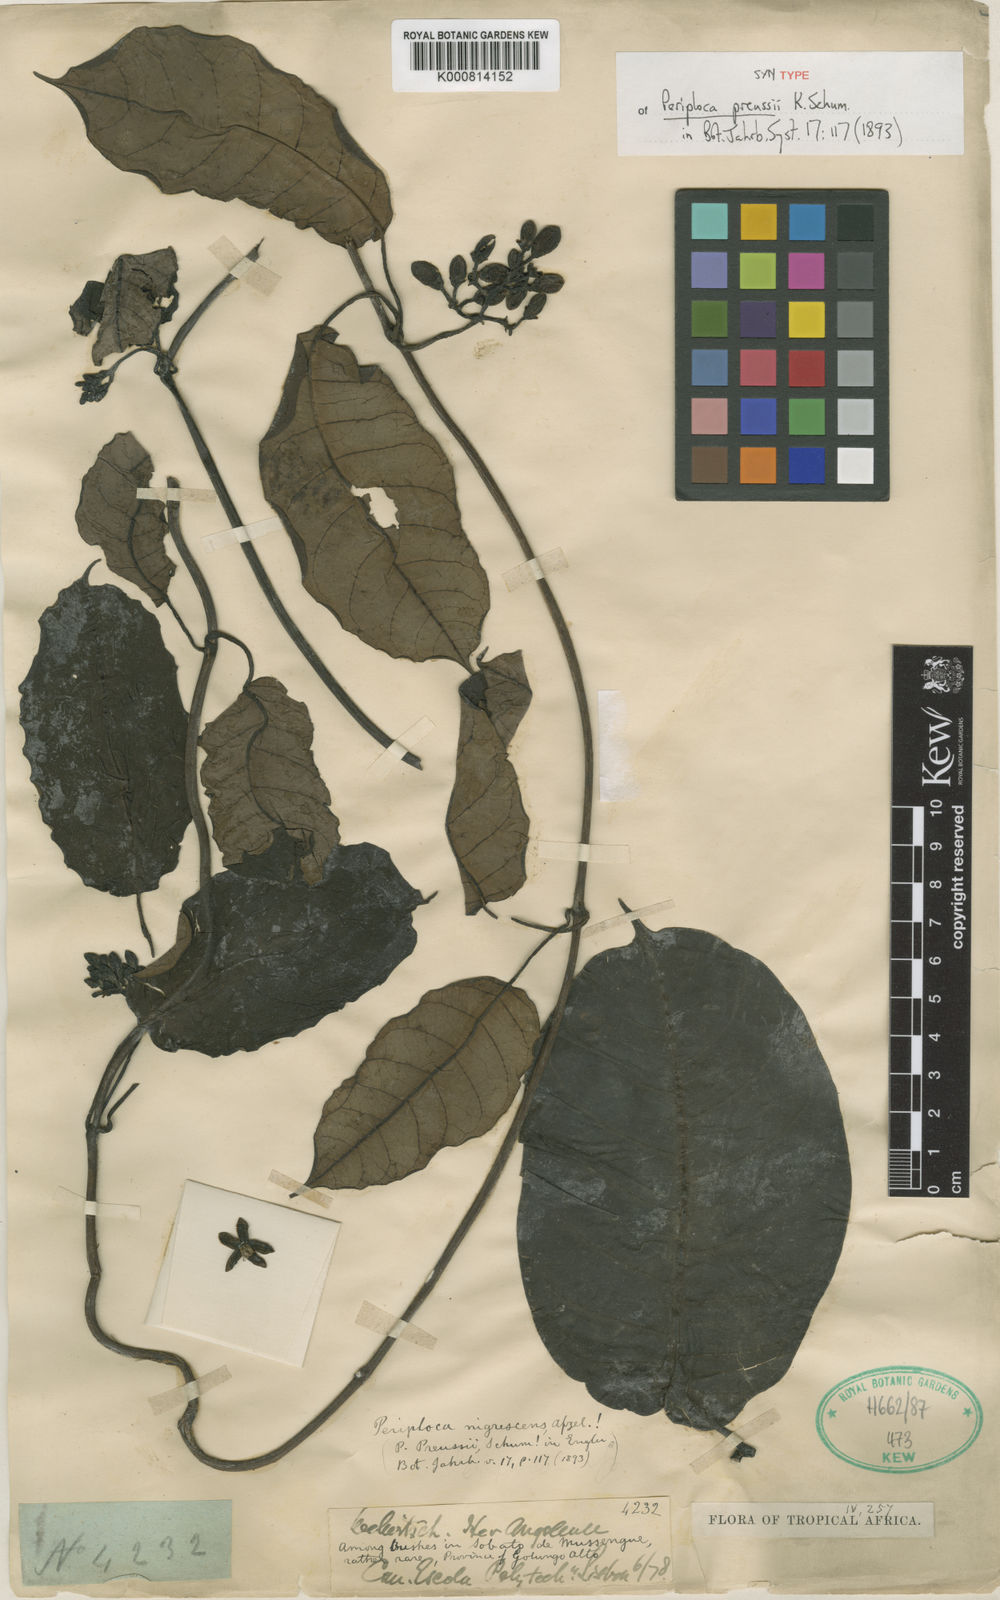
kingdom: Plantae
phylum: Tracheophyta
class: Magnoliopsida
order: Gentianales
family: Apocynaceae
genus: Cryptolepis
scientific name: Cryptolepis nigrescens
